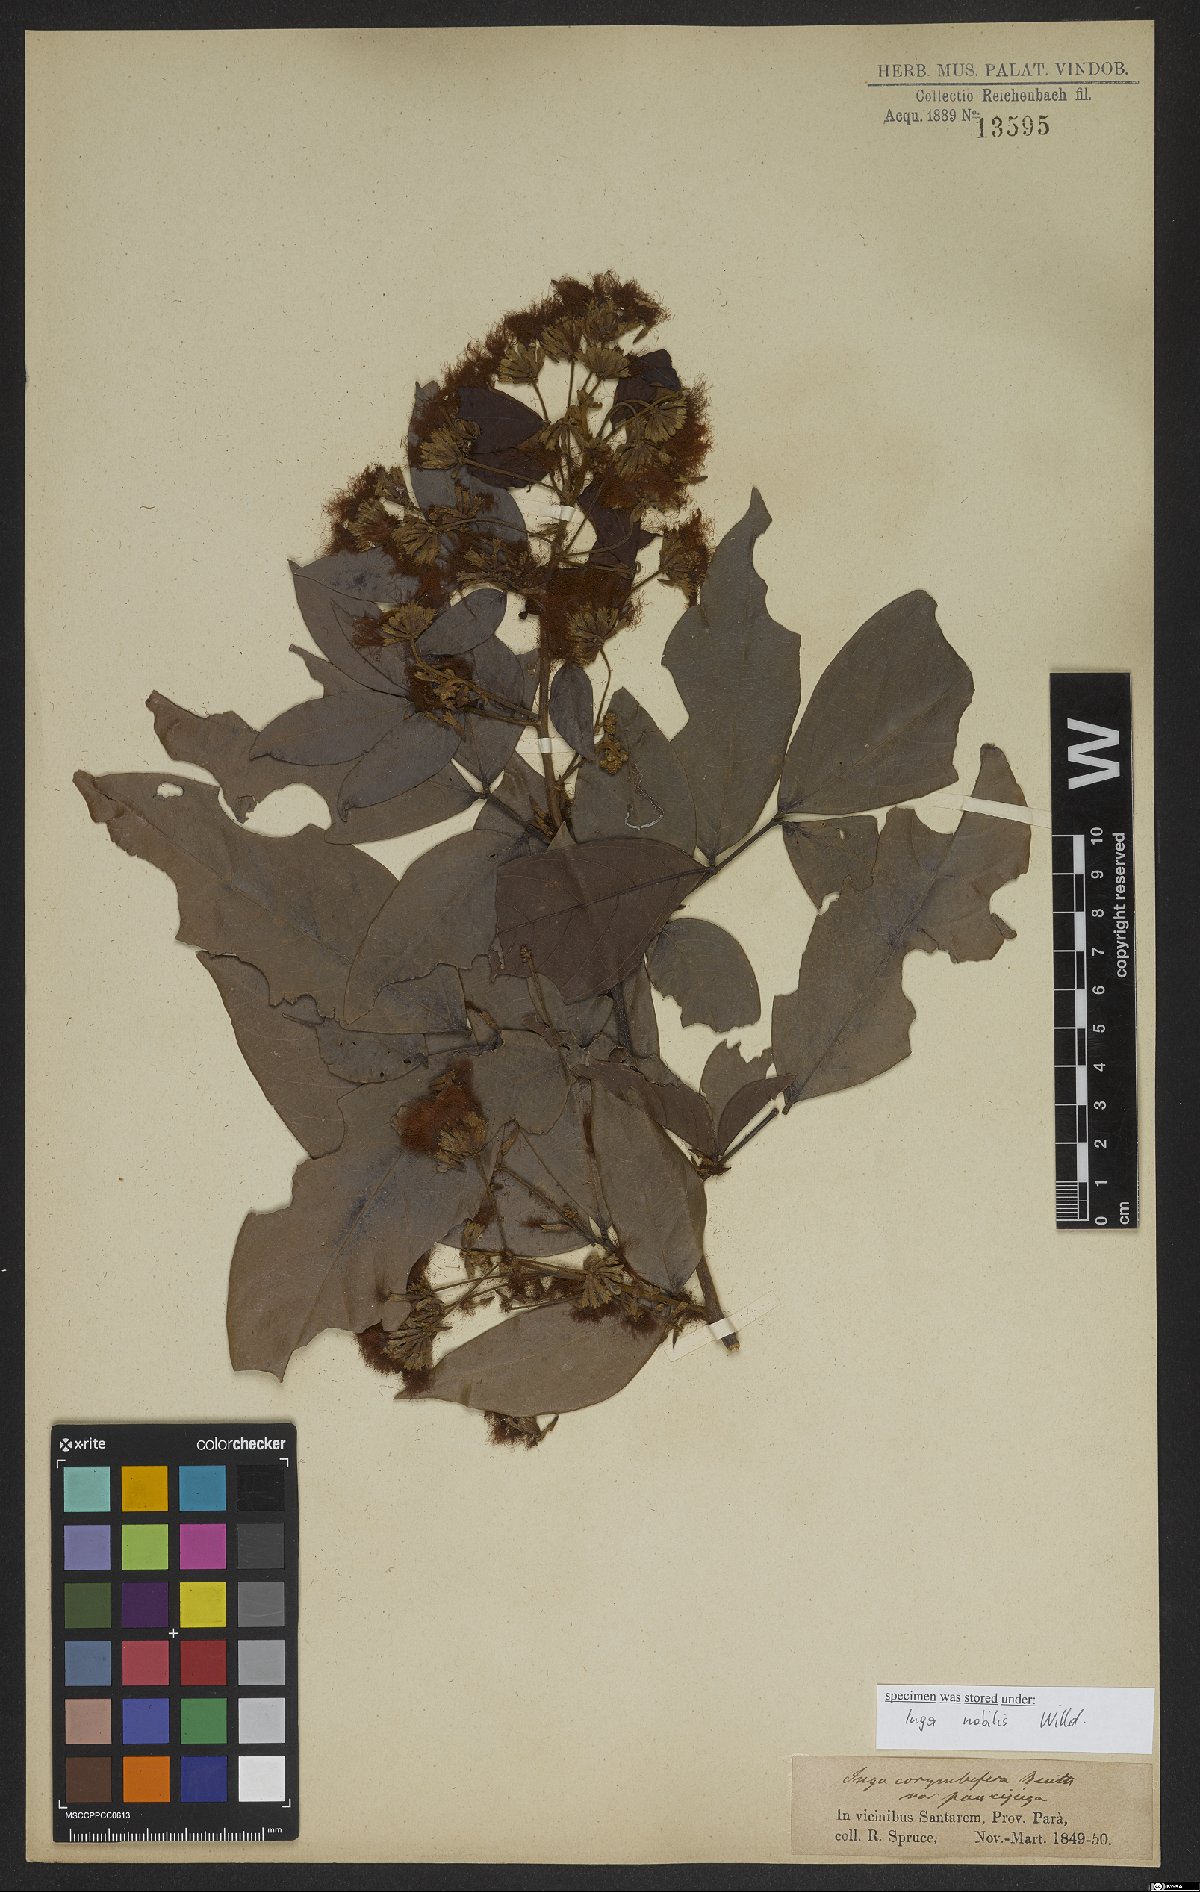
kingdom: Plantae
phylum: Tracheophyta
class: Magnoliopsida
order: Fabales
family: Fabaceae
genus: Inga
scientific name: Inga nobilis
